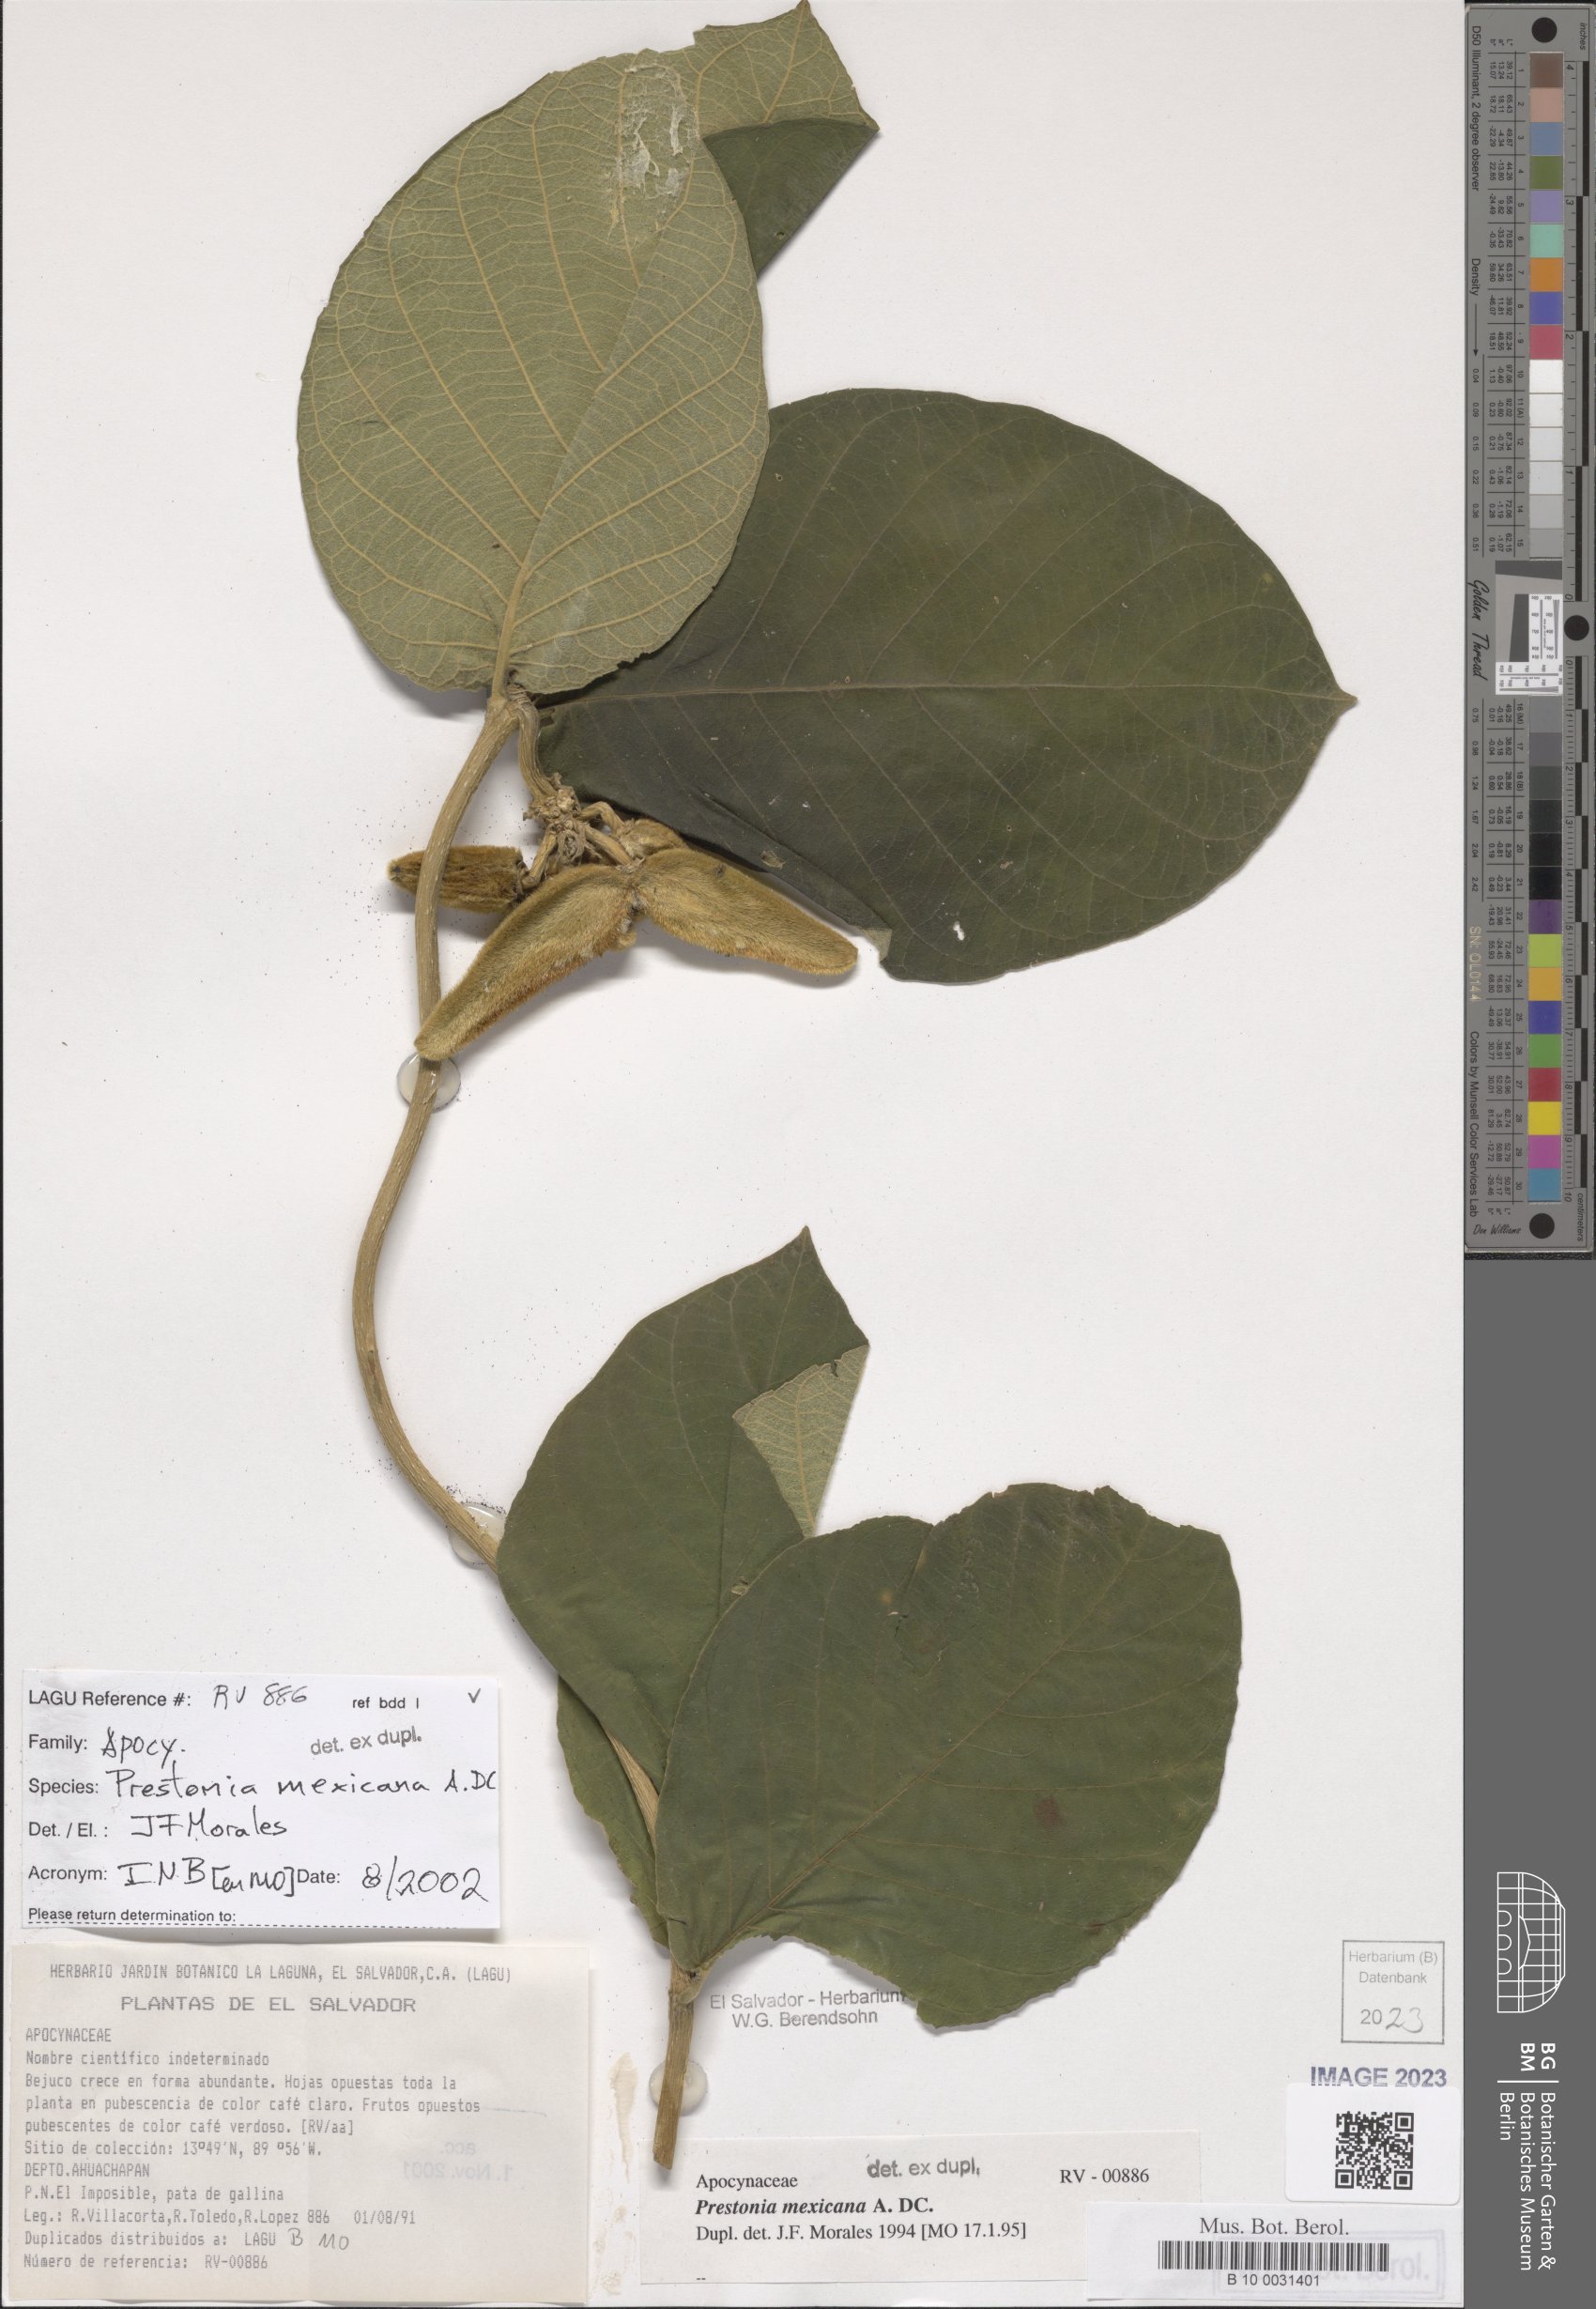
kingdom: Plantae
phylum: Tracheophyta
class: Magnoliopsida
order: Gentianales
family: Apocynaceae
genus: Prestonia
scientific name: Prestonia mexicana
